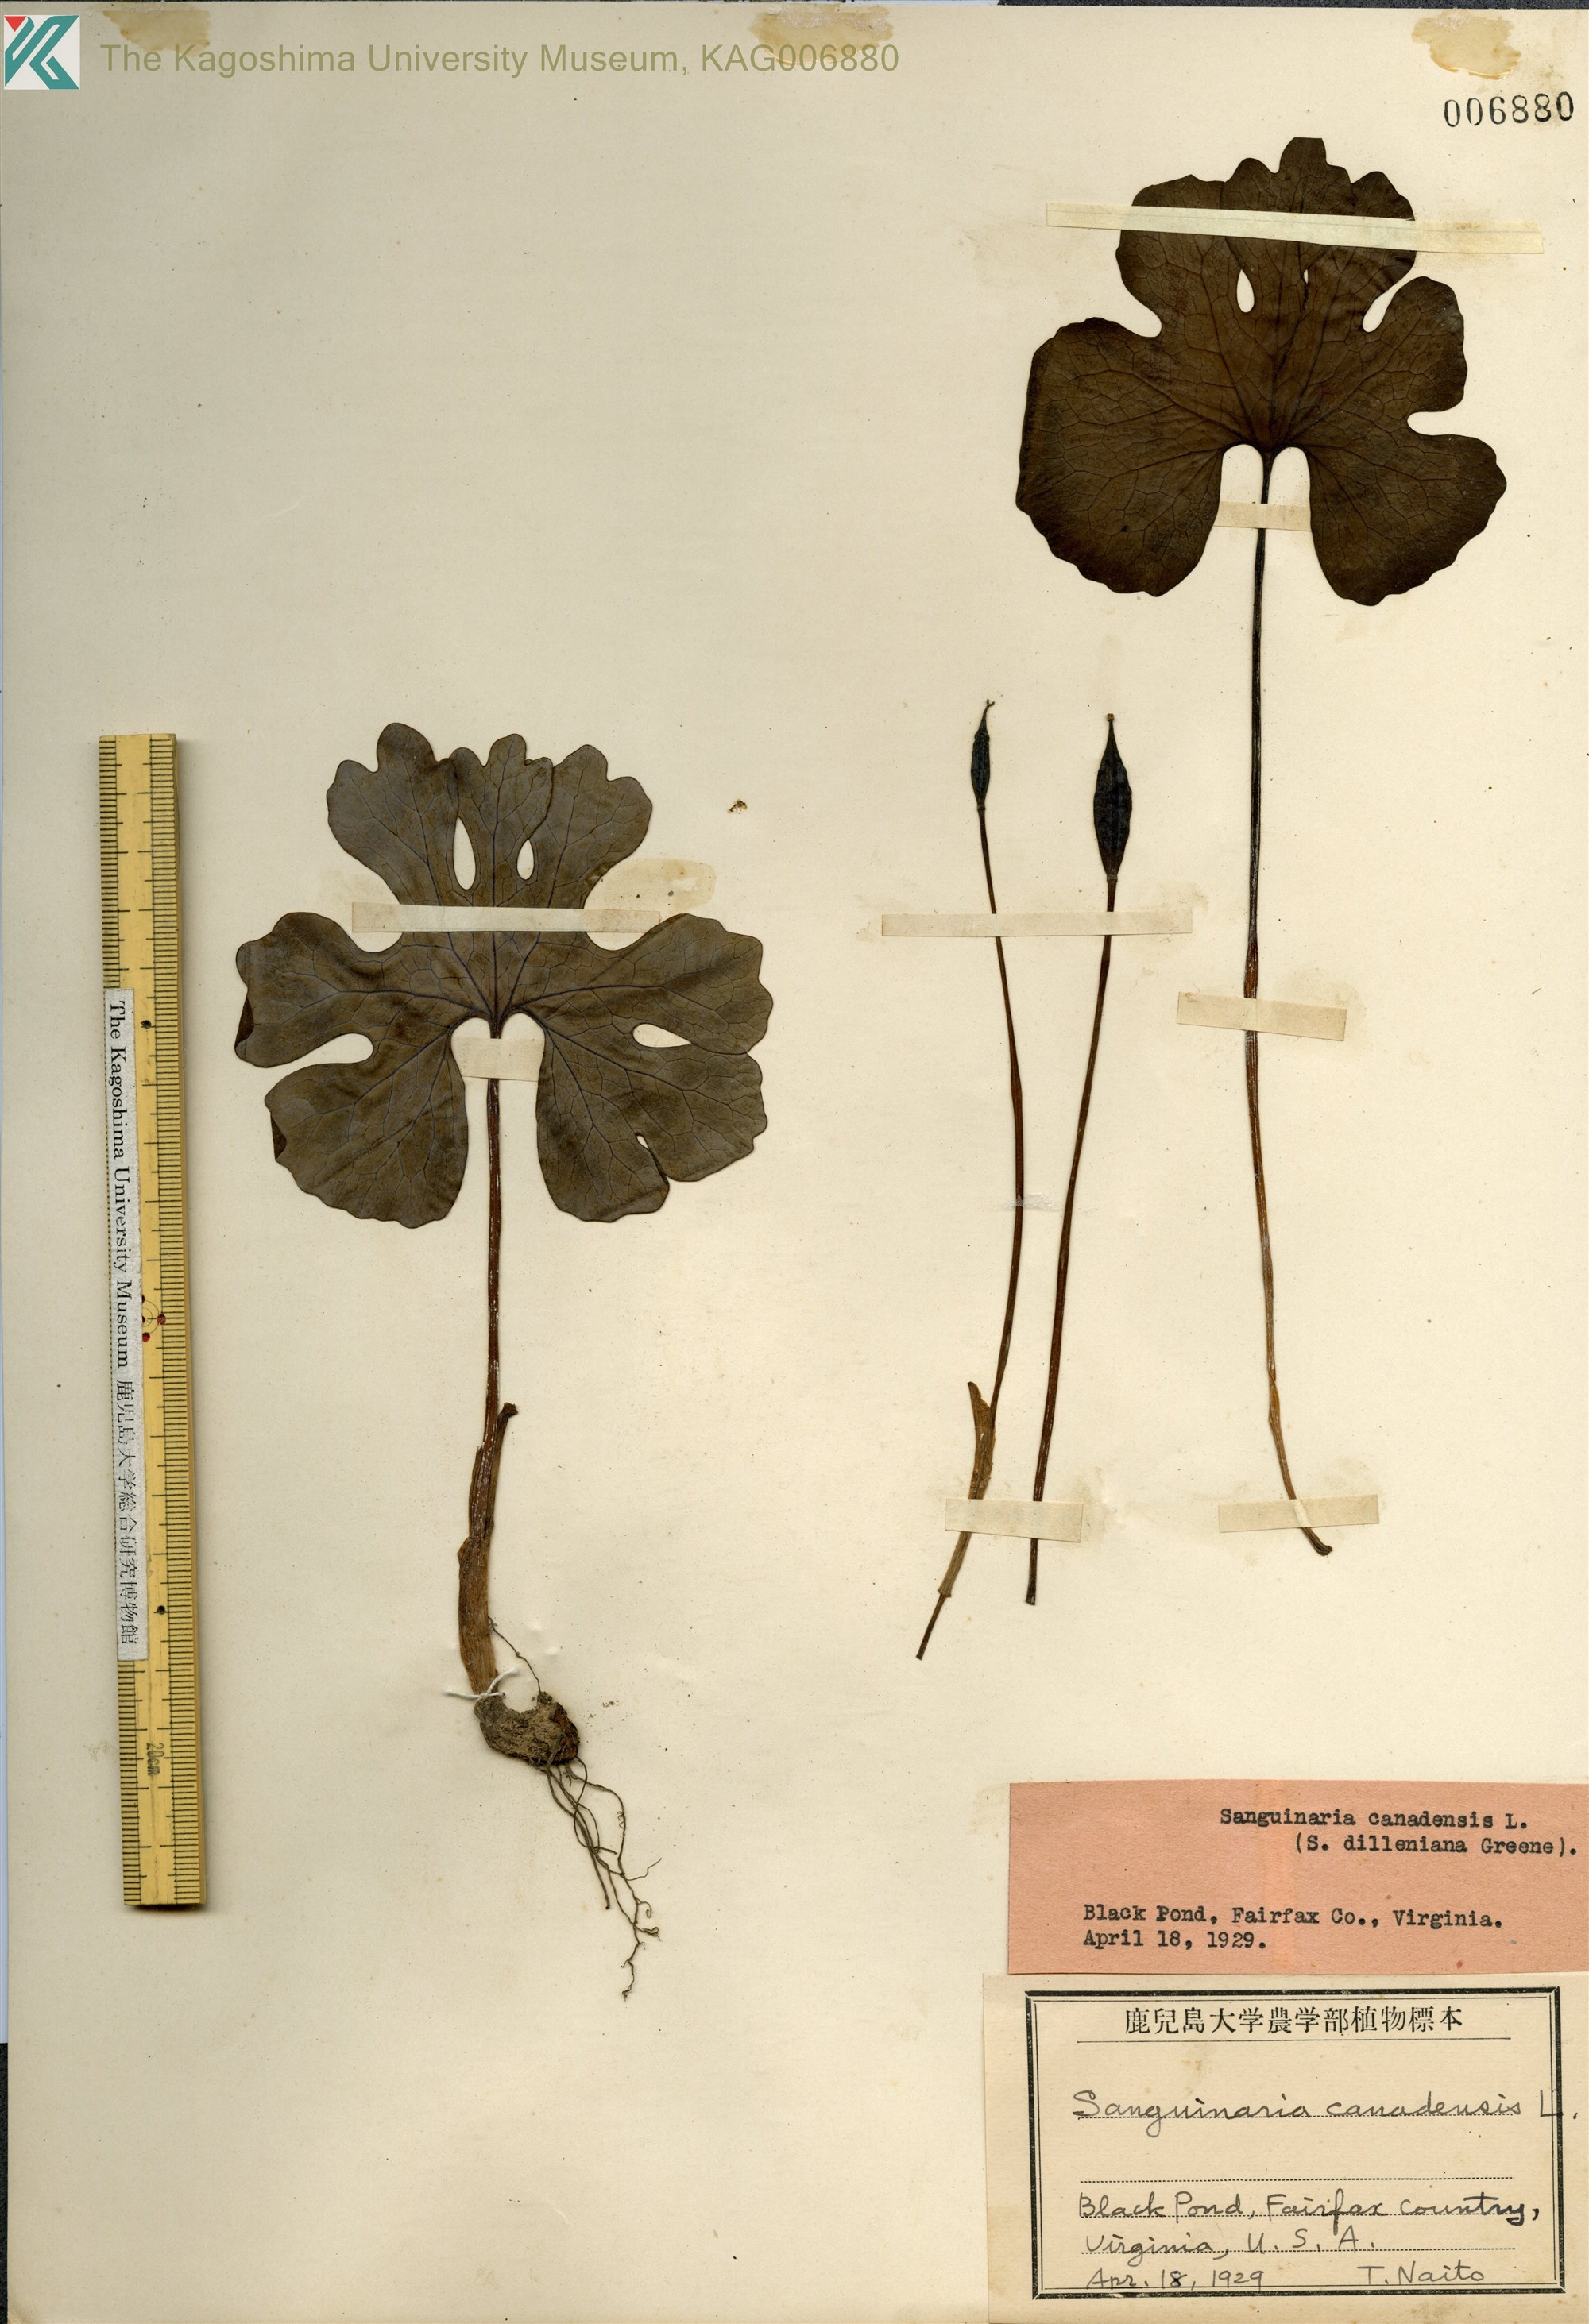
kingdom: Plantae
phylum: Tracheophyta
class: Magnoliopsida
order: Ranunculales
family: Papaveraceae
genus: Sanguinaria
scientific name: Sanguinaria canadensis
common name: Bloodroot
